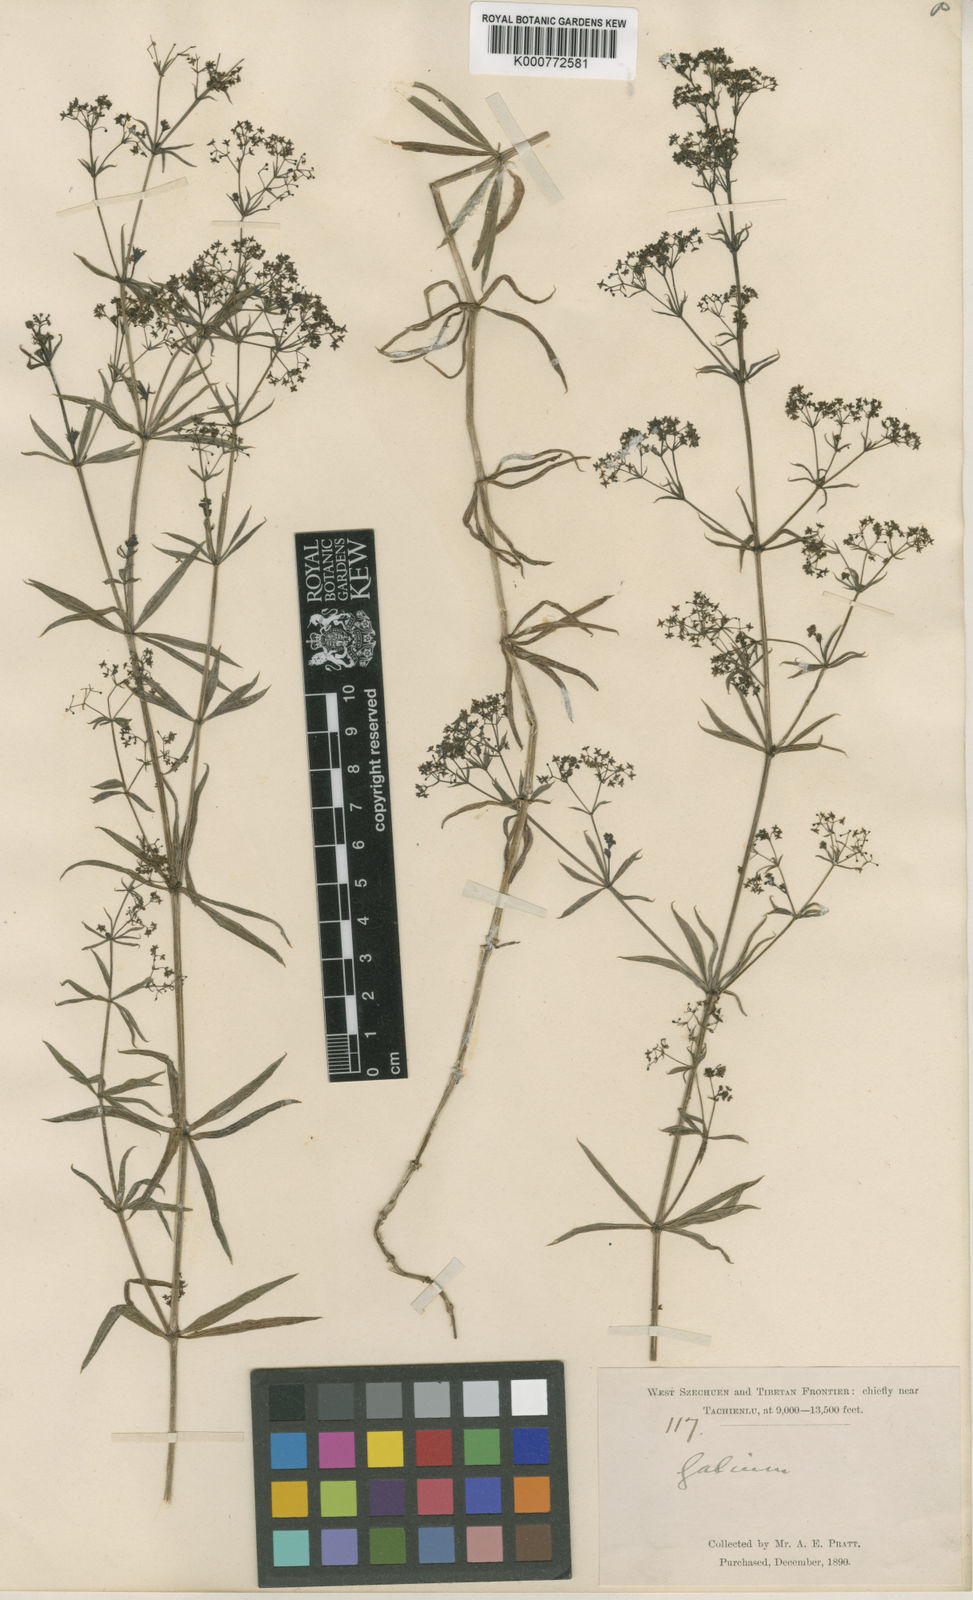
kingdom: Plantae
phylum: Tracheophyta
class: Magnoliopsida
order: Gentianales
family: Rubiaceae
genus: Galium
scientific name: Galium odoratum
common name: Sweet woodruff
